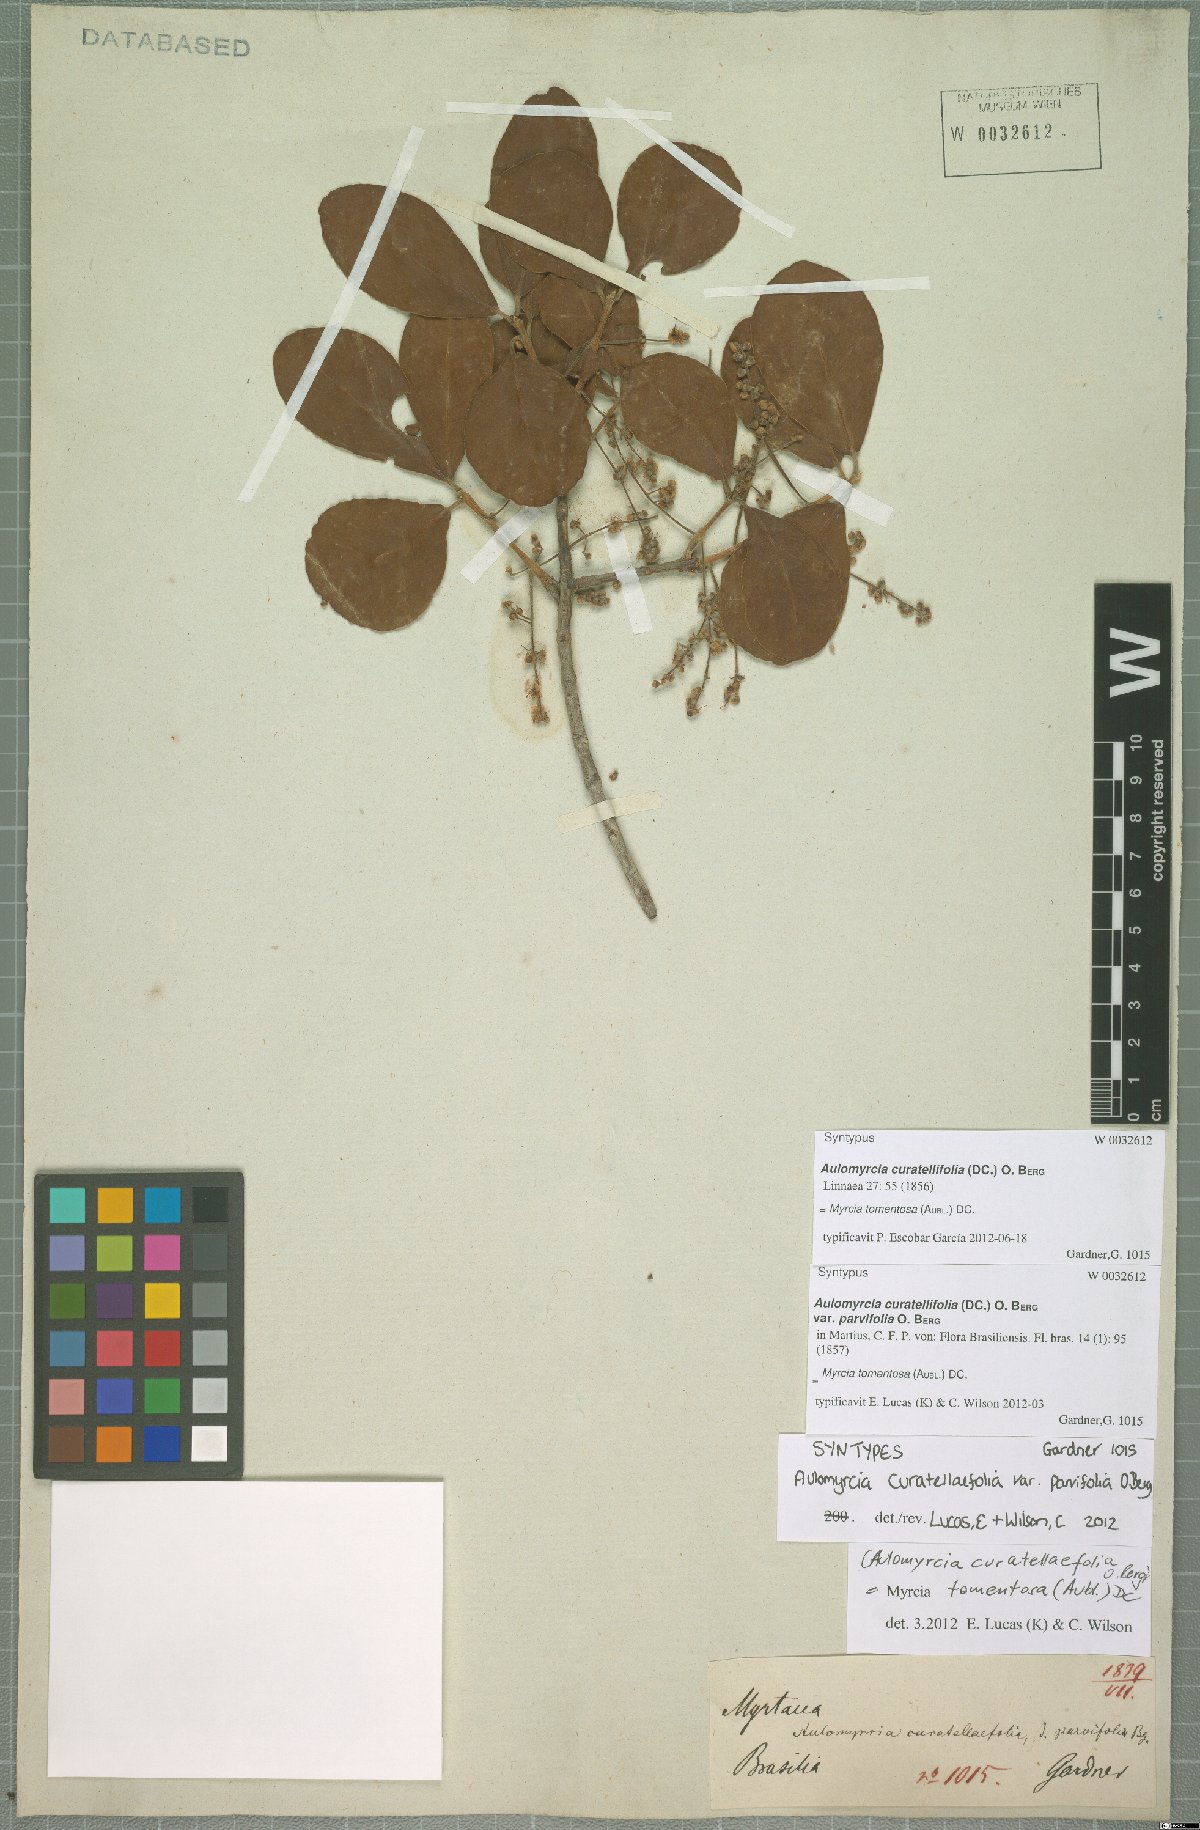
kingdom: Plantae
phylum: Tracheophyta
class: Magnoliopsida
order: Myrtales
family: Myrtaceae
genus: Myrcia
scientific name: Myrcia tomentosa
